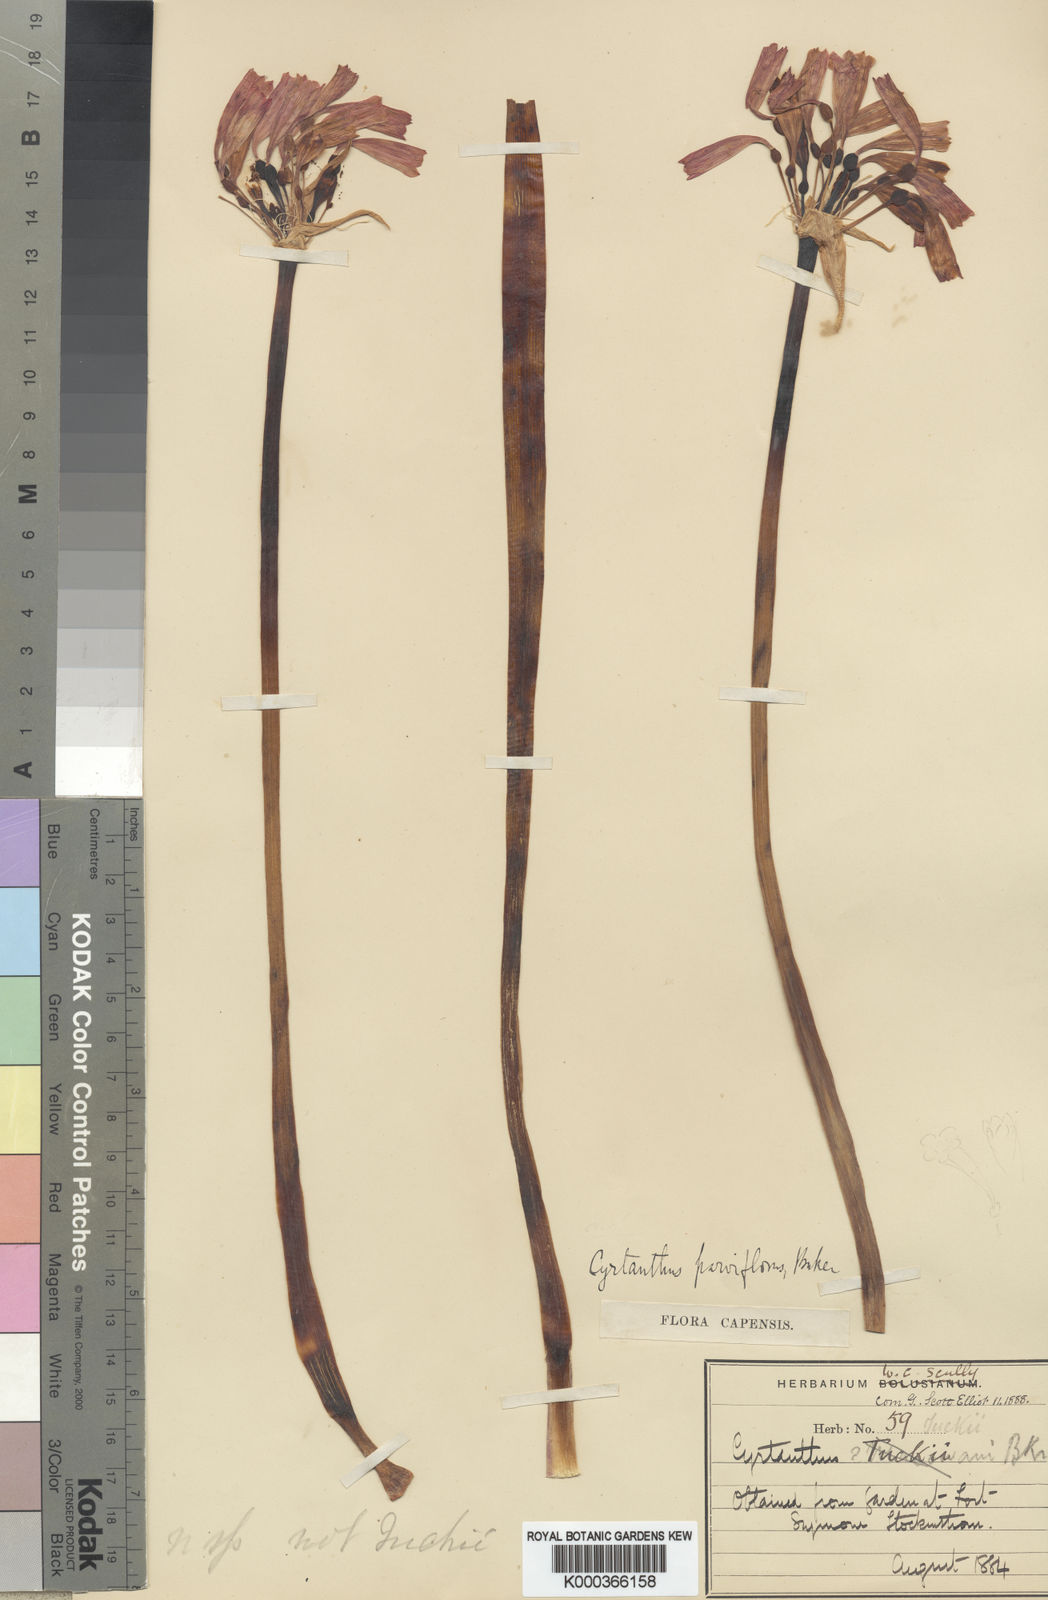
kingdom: Plantae
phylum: Tracheophyta
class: Liliopsida
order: Asparagales
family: Amaryllidaceae
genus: Cyrtanthus
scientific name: Cyrtanthus bicolor
